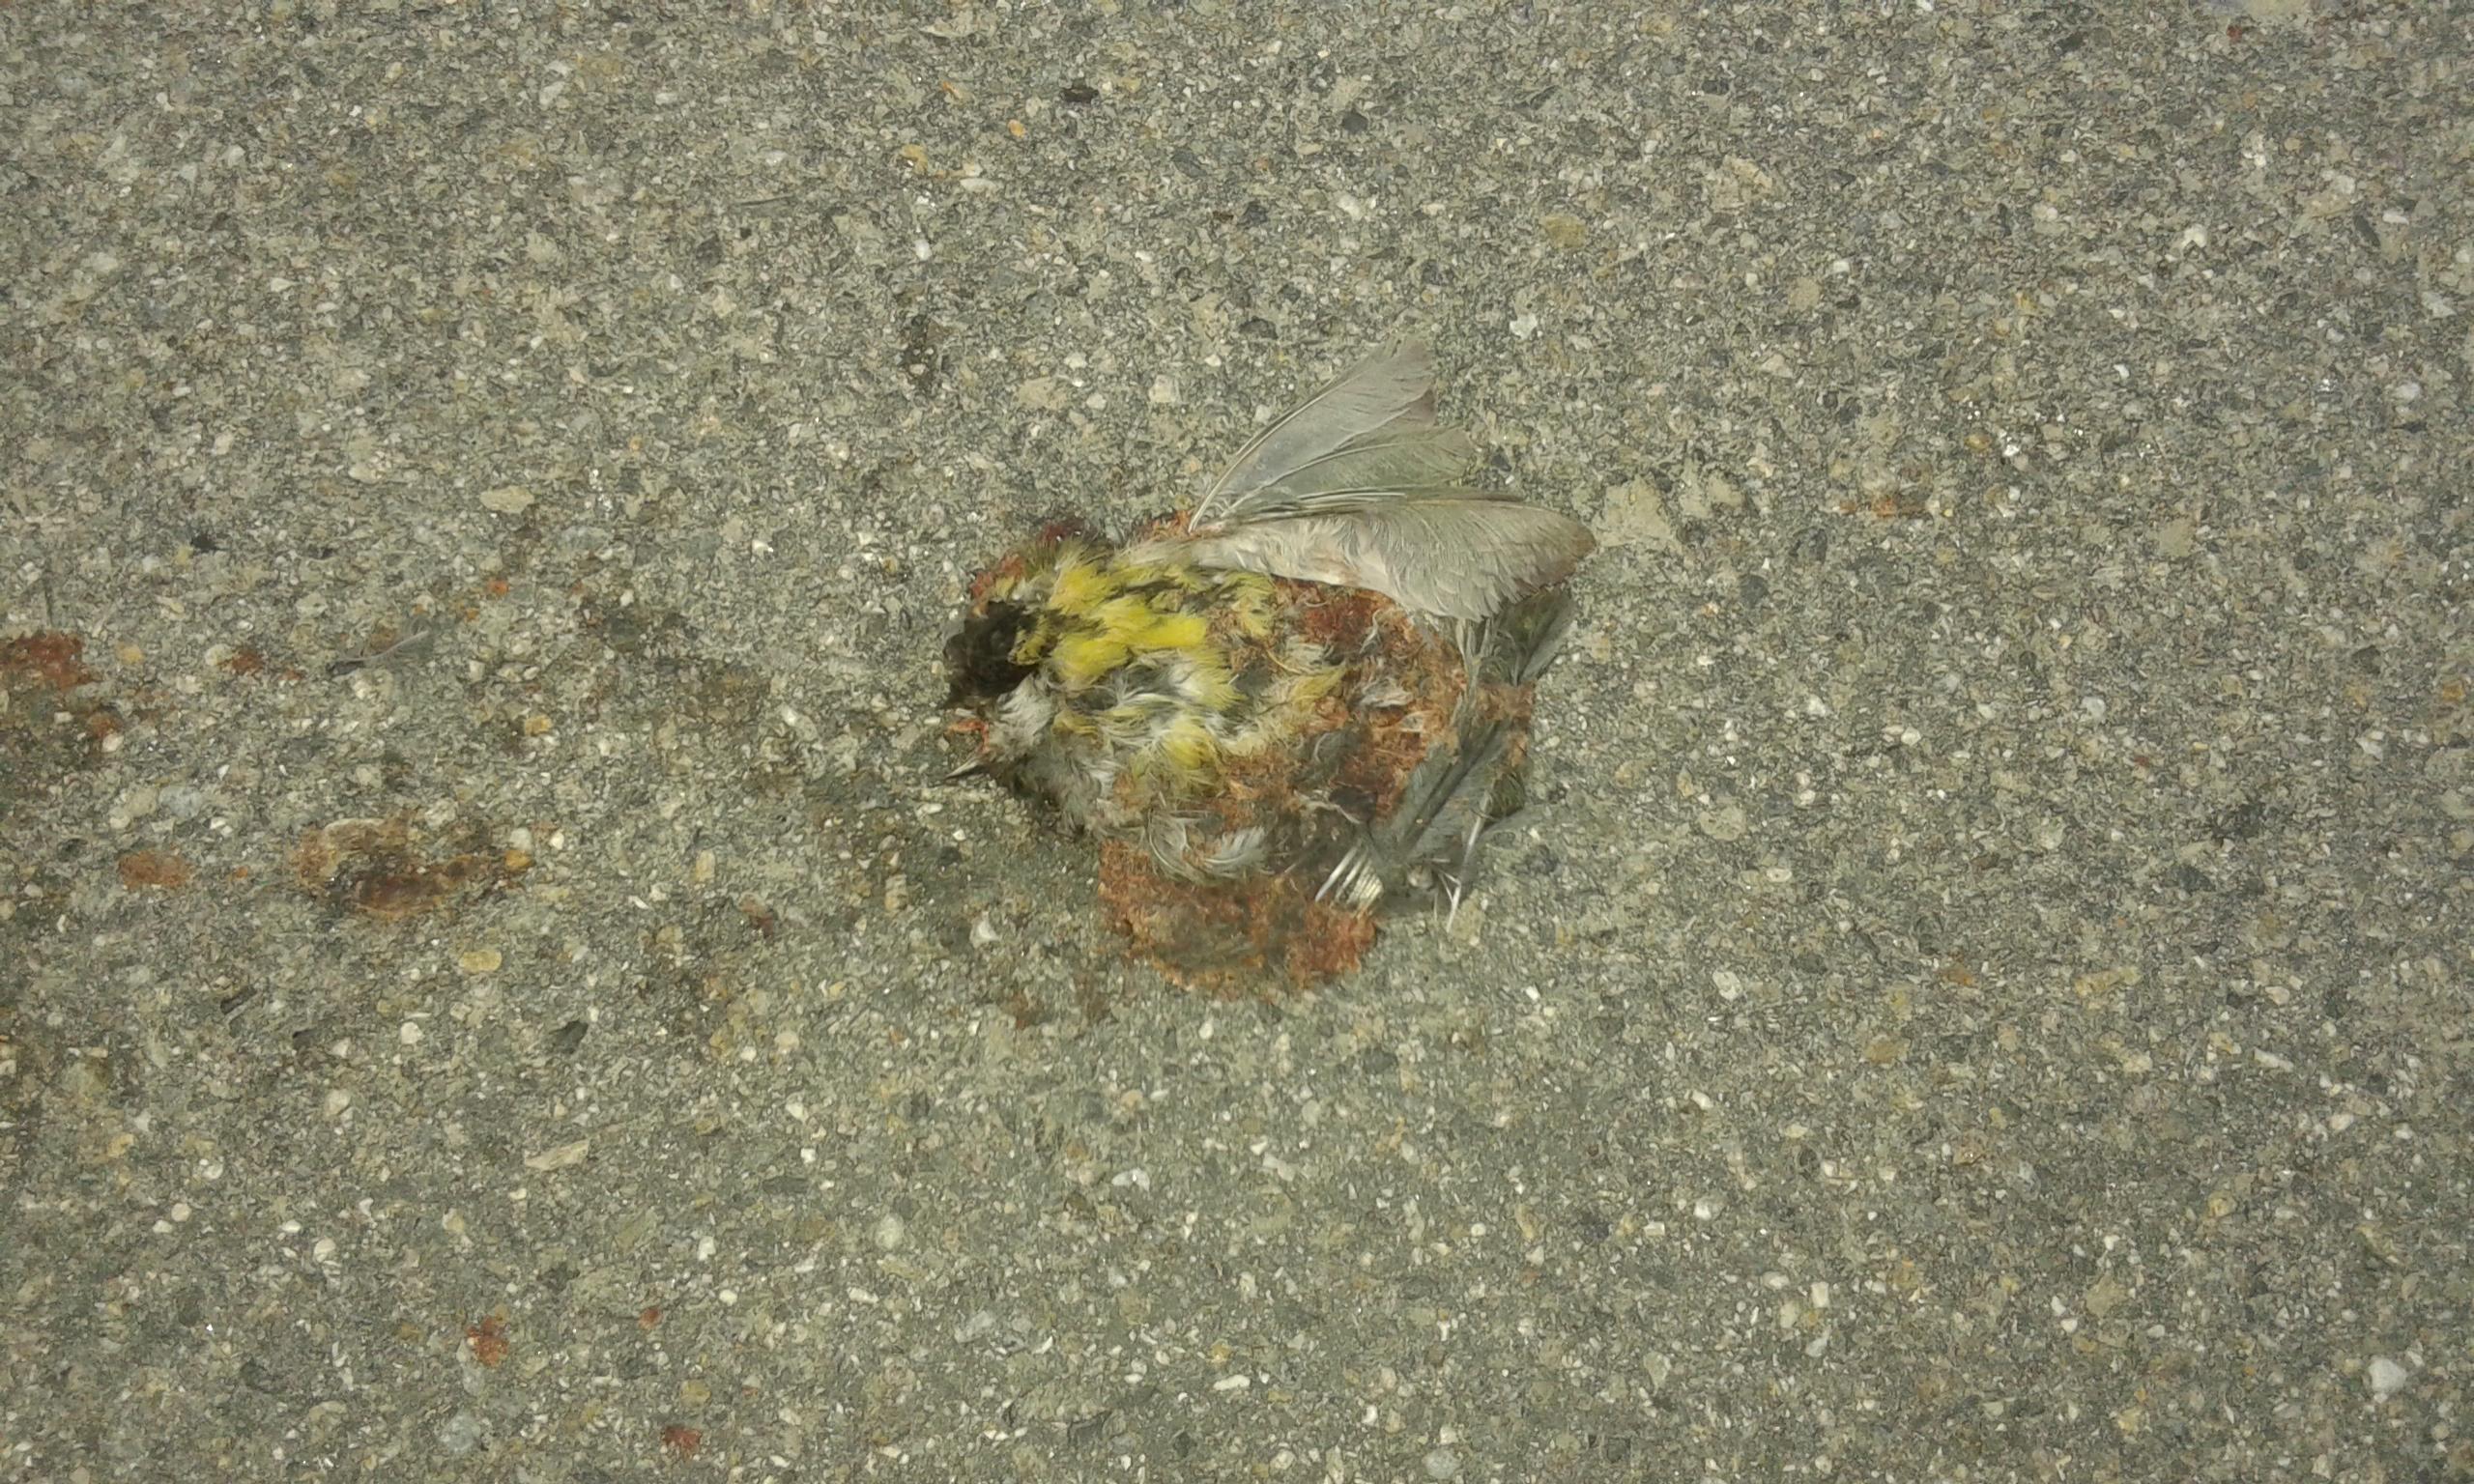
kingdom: Animalia
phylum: Chordata
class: Aves
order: Passeriformes
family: Paridae
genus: Parus
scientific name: Parus major
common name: Great tit
